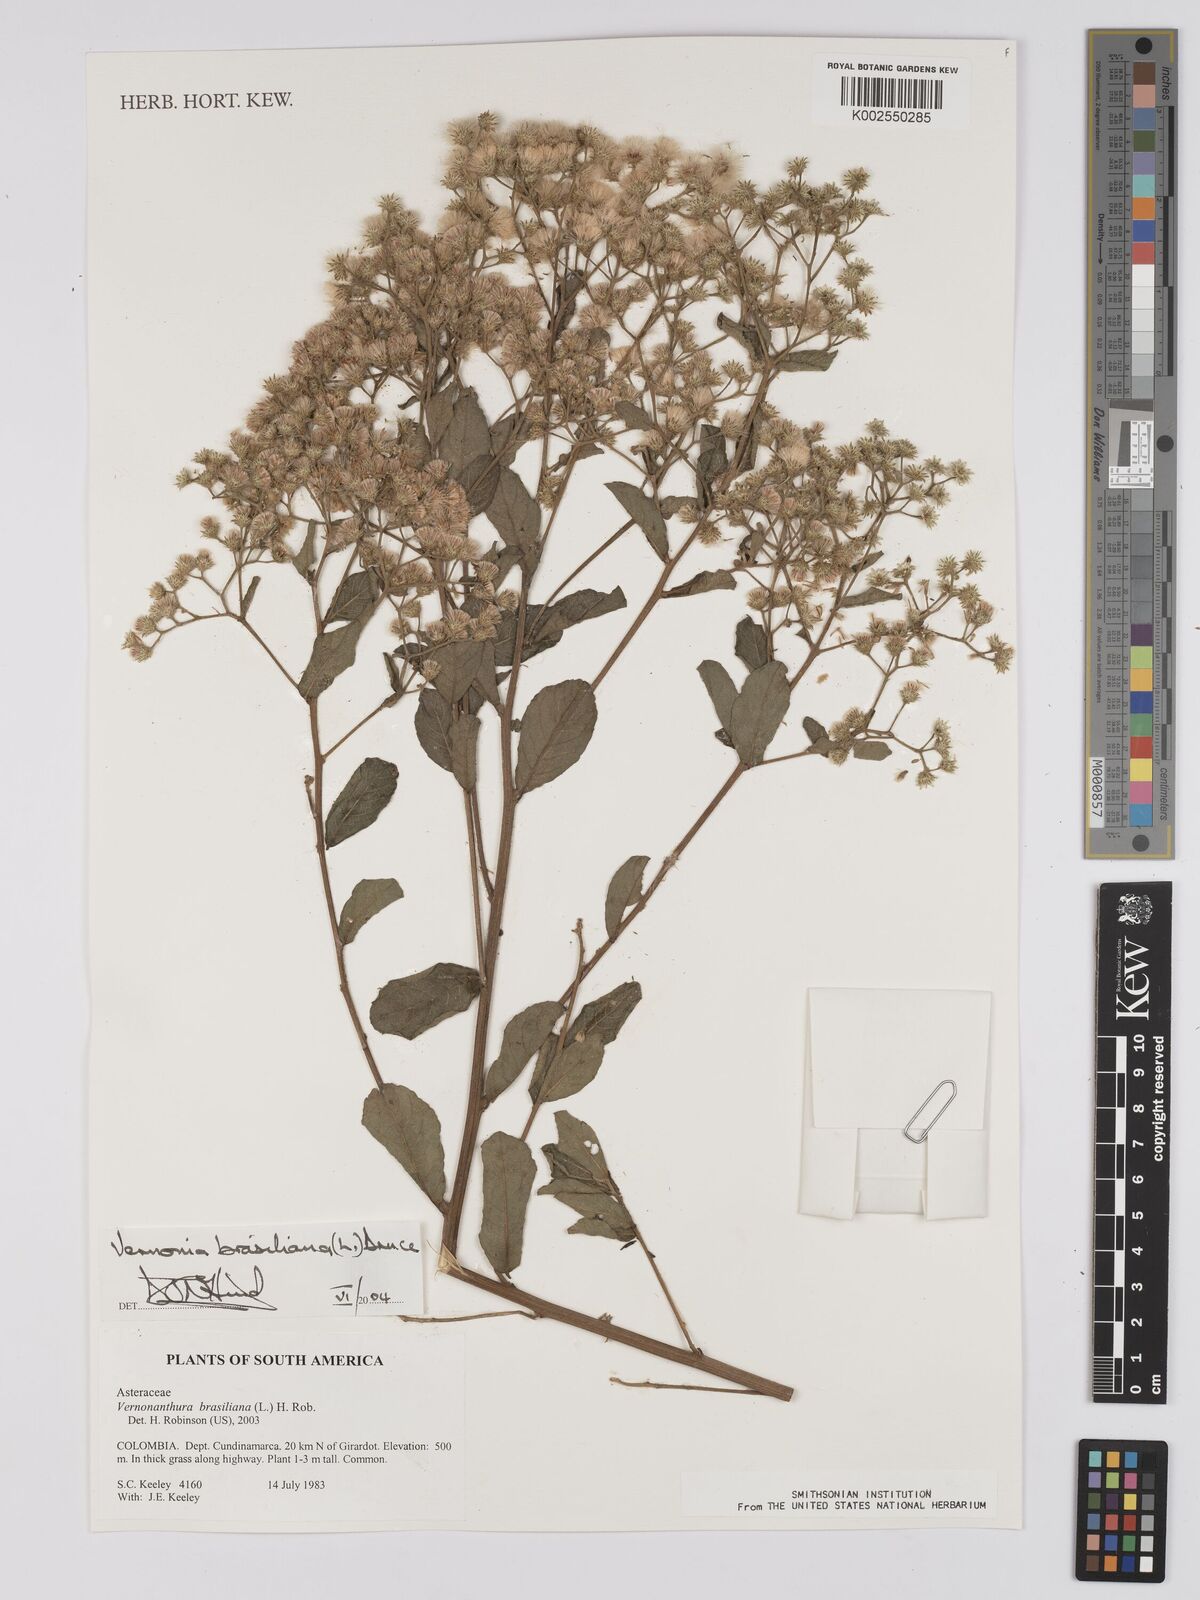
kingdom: Plantae
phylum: Tracheophyta
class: Magnoliopsida
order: Asterales
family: Asteraceae
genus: Vernonanthura
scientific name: Vernonanthura brasiliana
